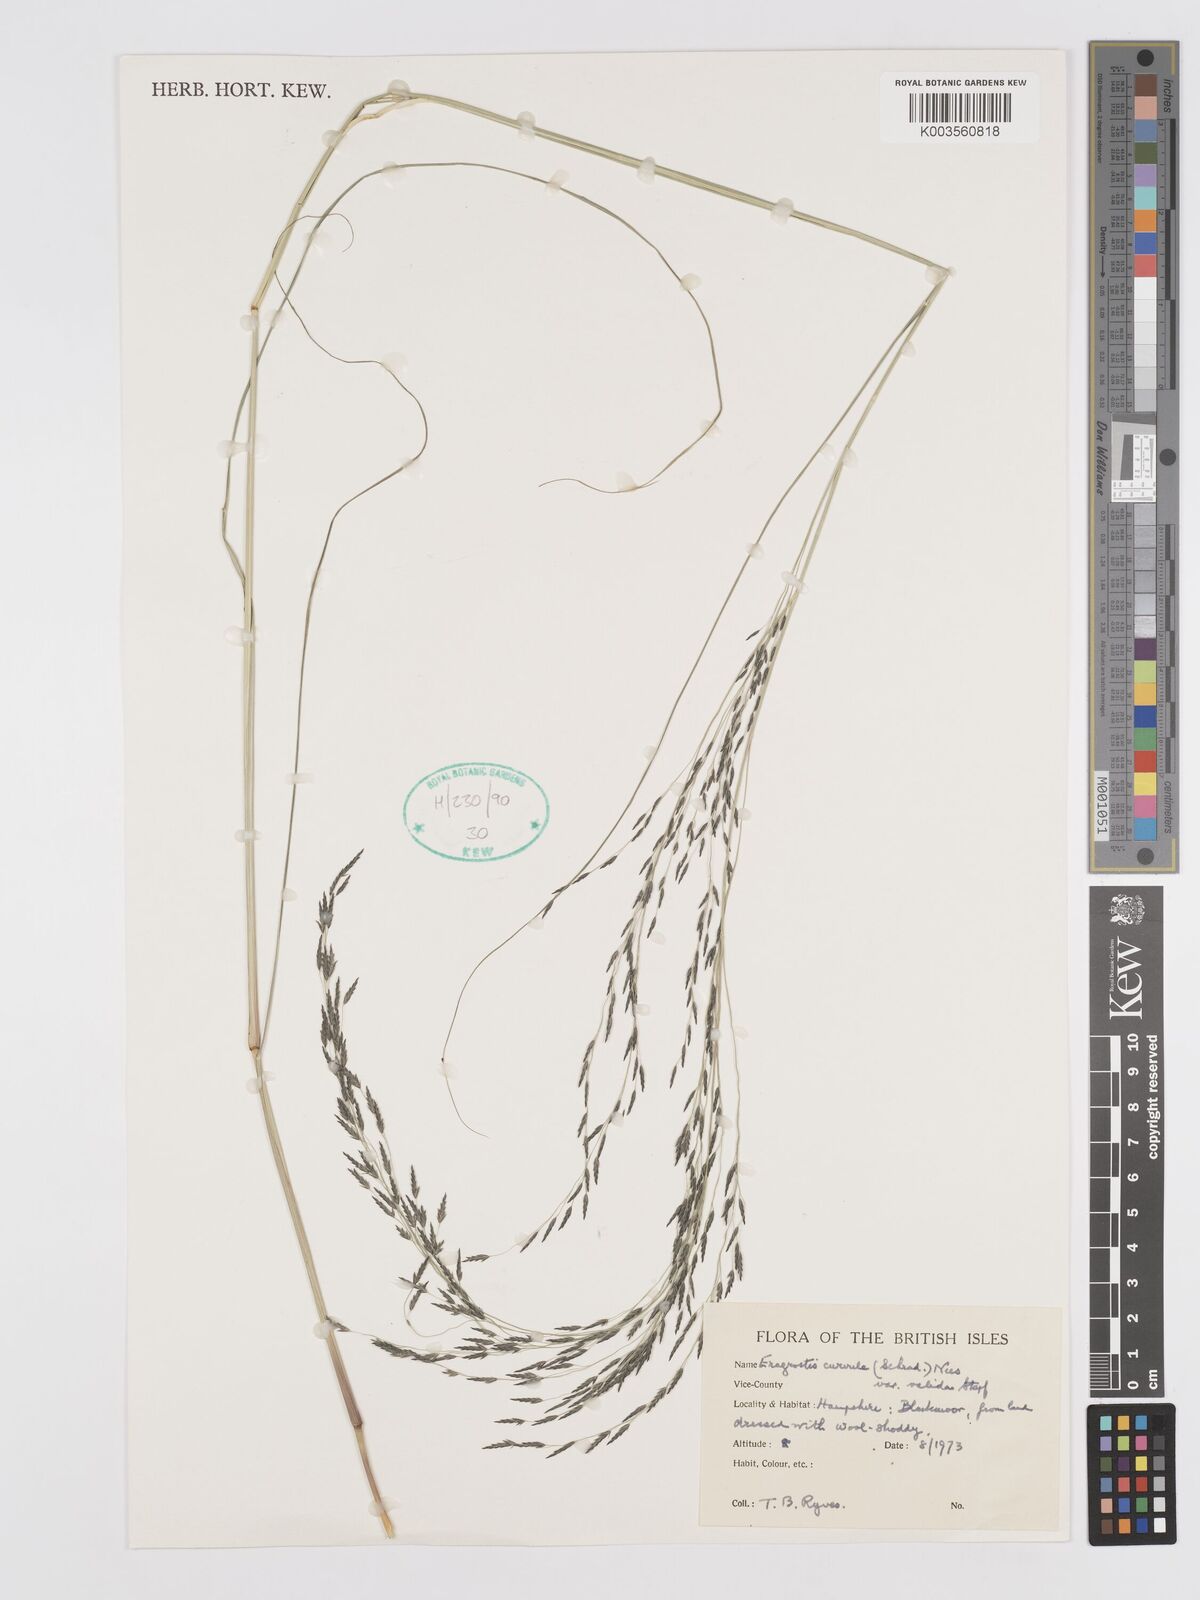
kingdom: Plantae
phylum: Tracheophyta
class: Liliopsida
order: Poales
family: Poaceae
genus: Eragrostis
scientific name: Eragrostis curvula
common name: African love-grass
